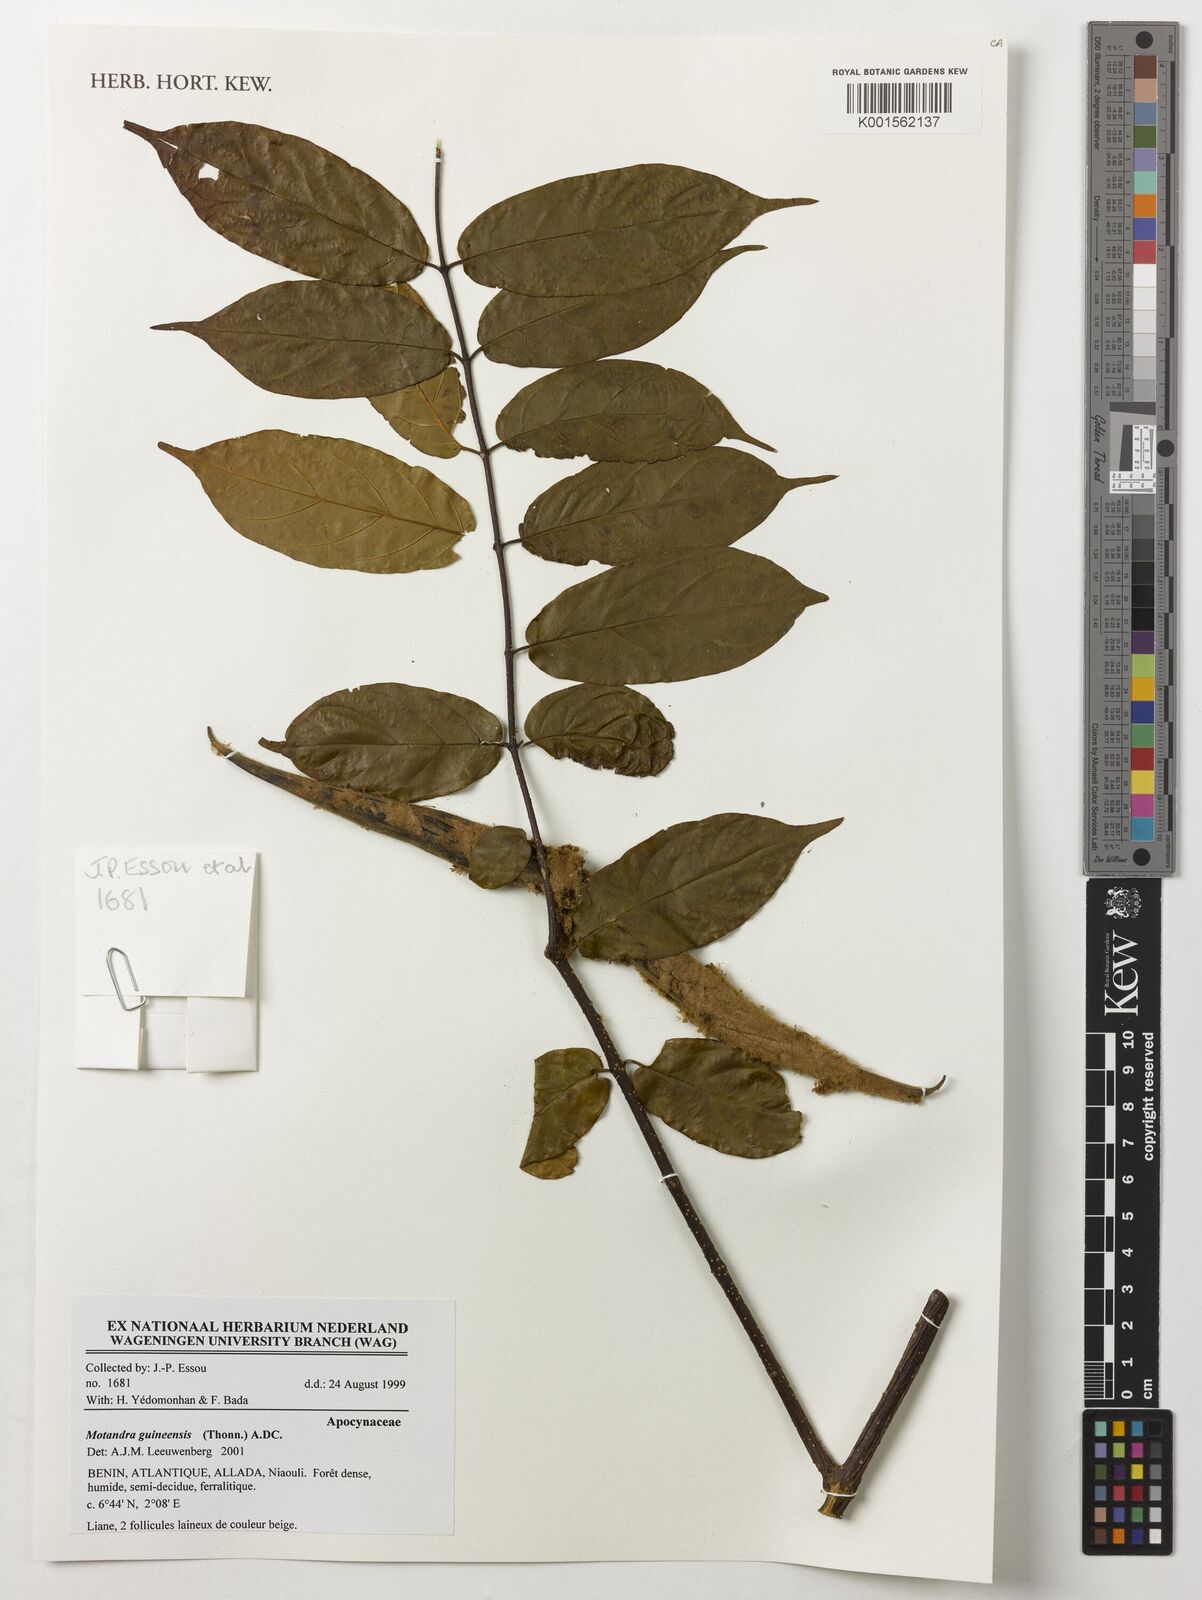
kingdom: Plantae
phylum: Tracheophyta
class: Magnoliopsida
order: Gentianales
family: Apocynaceae
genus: Motandra
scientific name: Motandra paniculata
